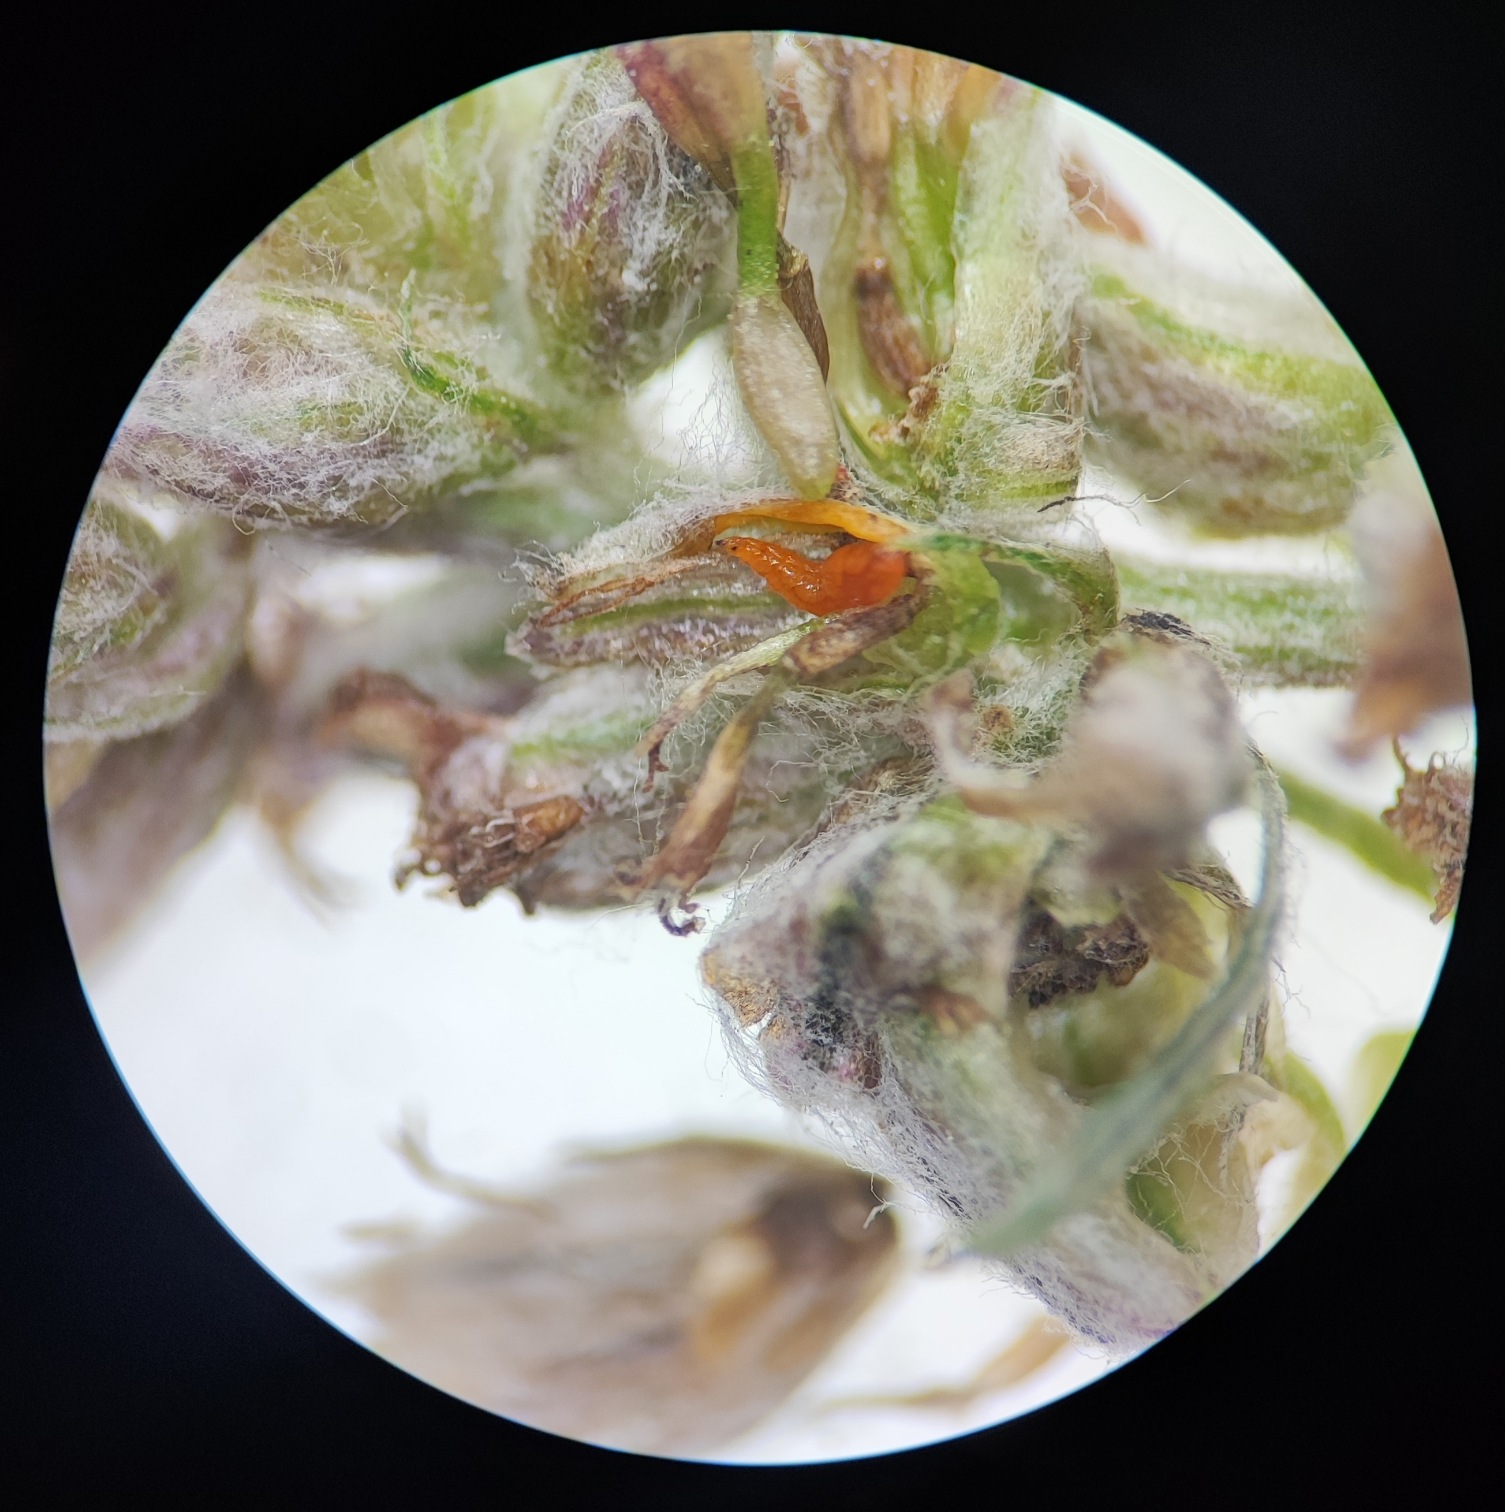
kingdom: Animalia
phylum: Arthropoda
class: Insecta
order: Diptera
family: Cecidomyiidae
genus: Lestodiplosis
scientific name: Lestodiplosis
